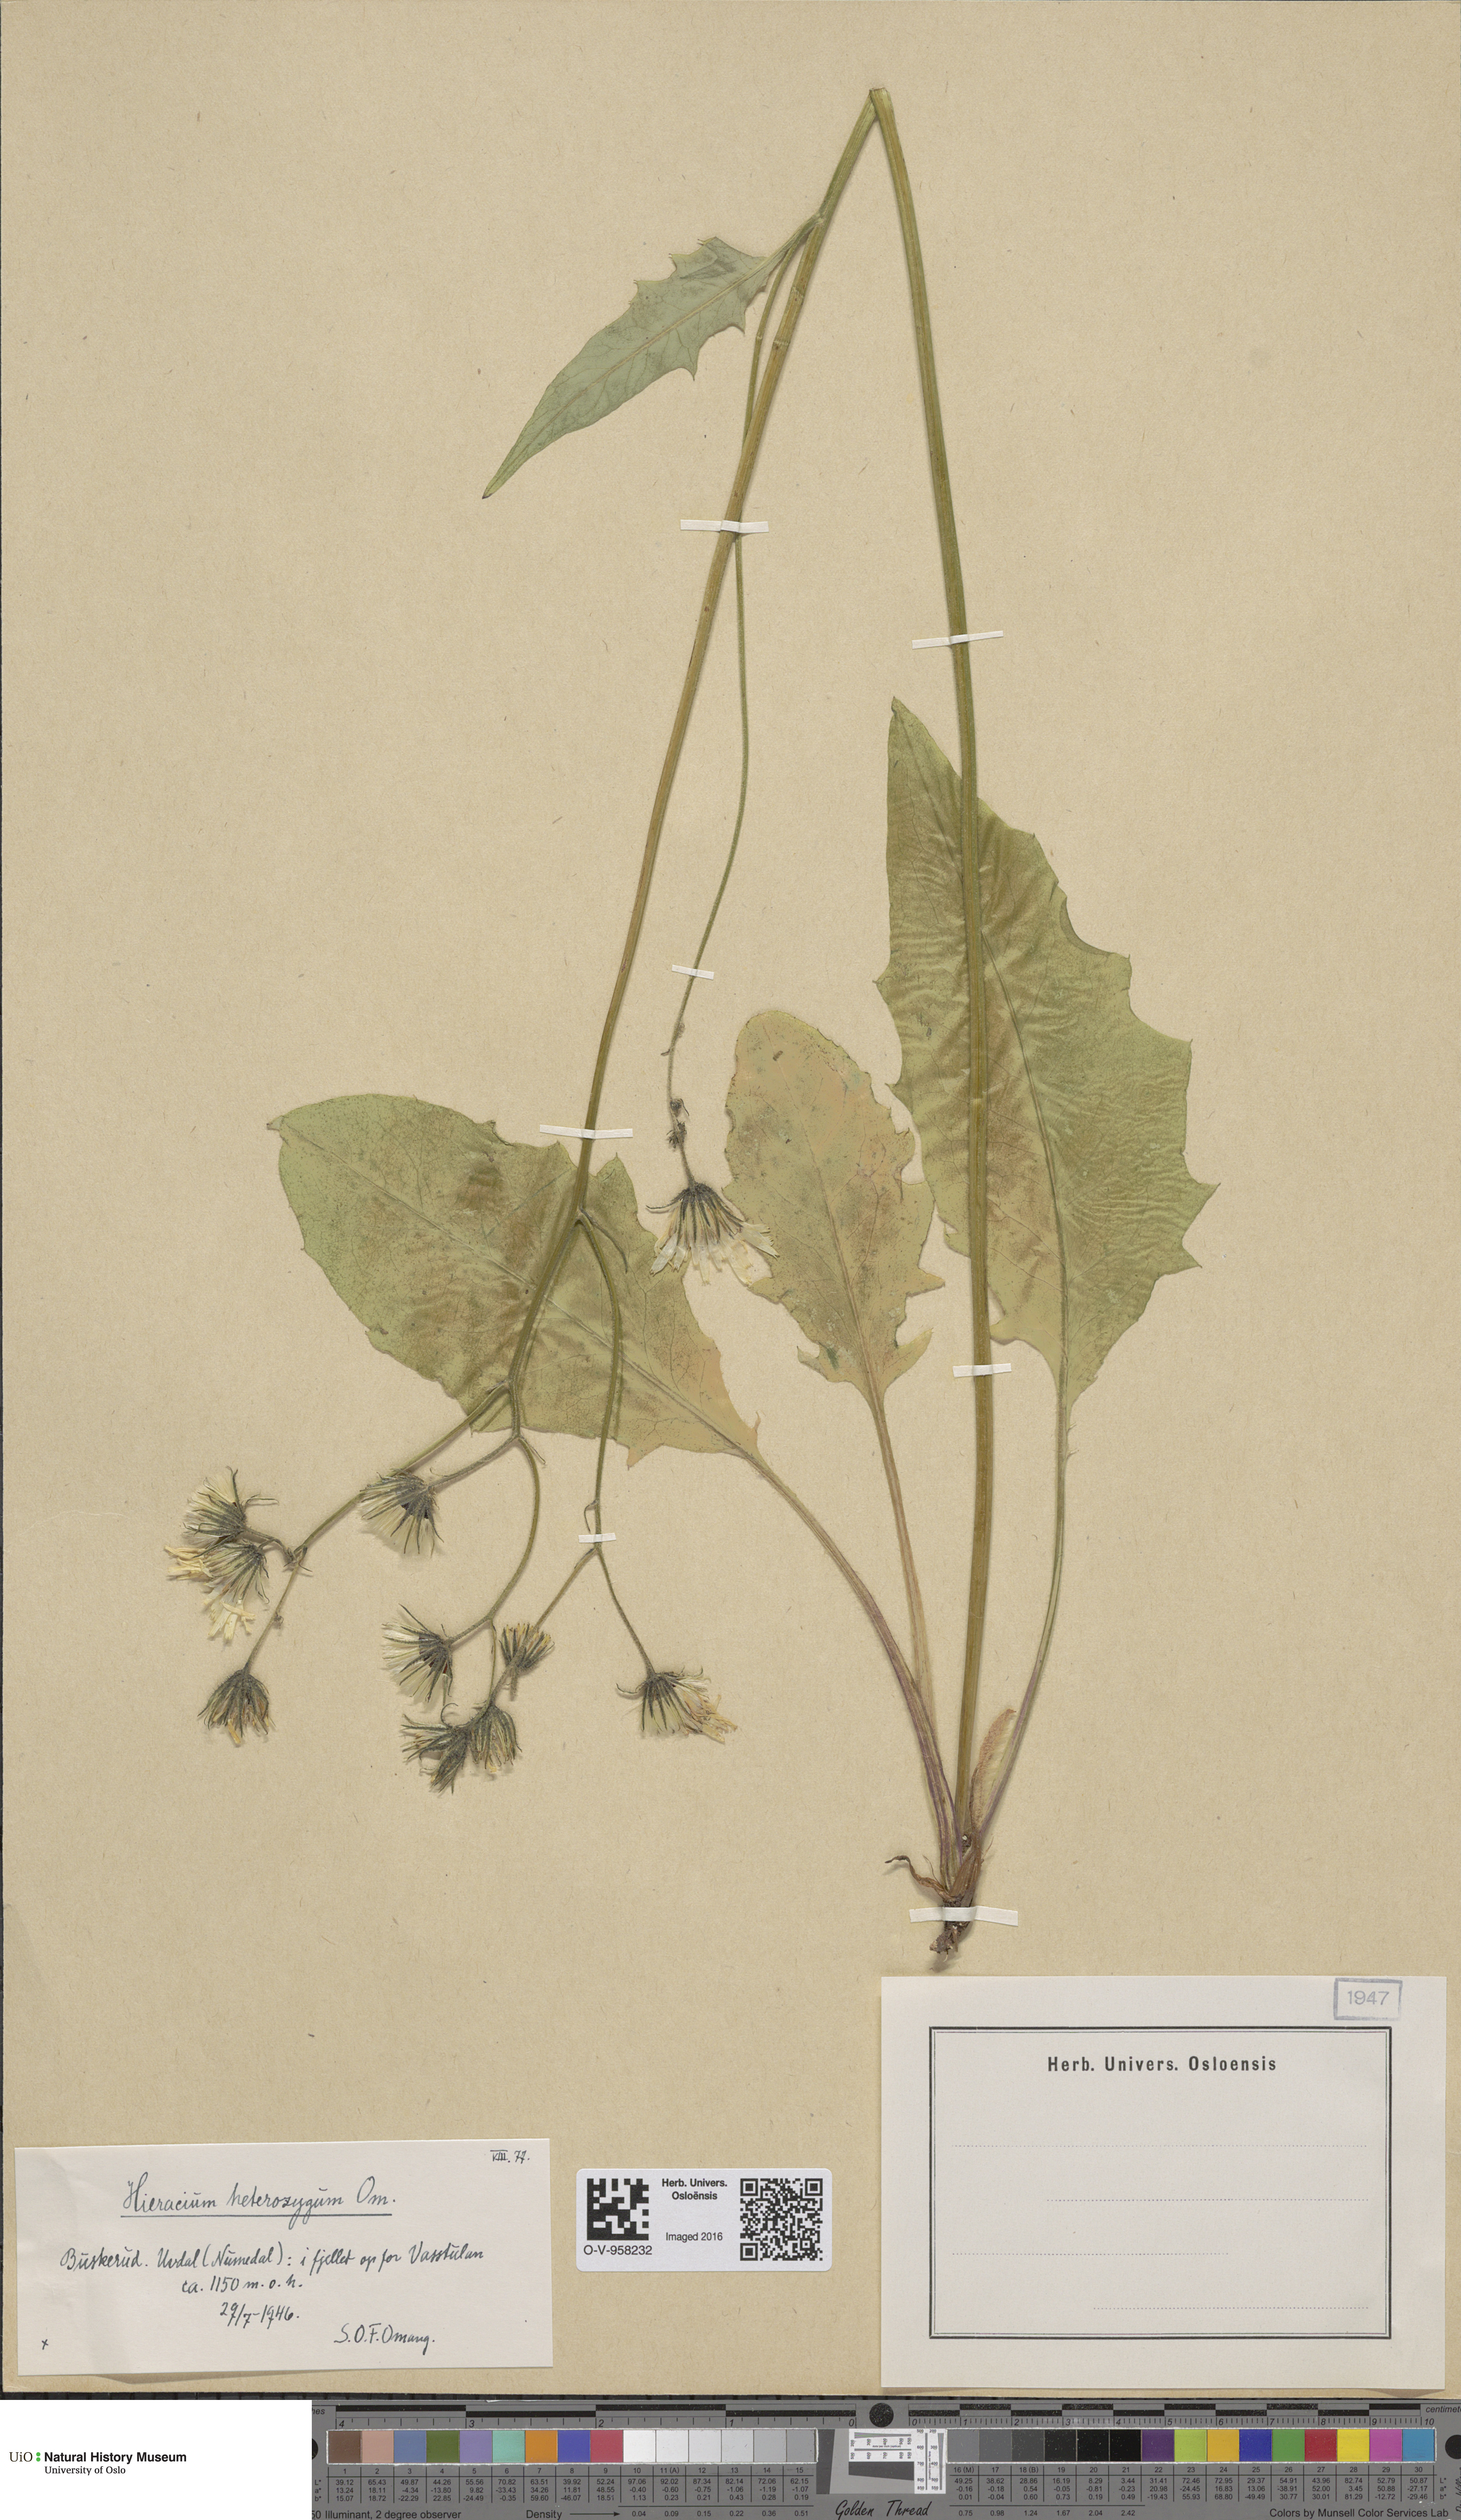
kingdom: Plantae
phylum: Tracheophyta
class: Magnoliopsida
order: Asterales
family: Asteraceae
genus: Hieracium
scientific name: Hieracium
